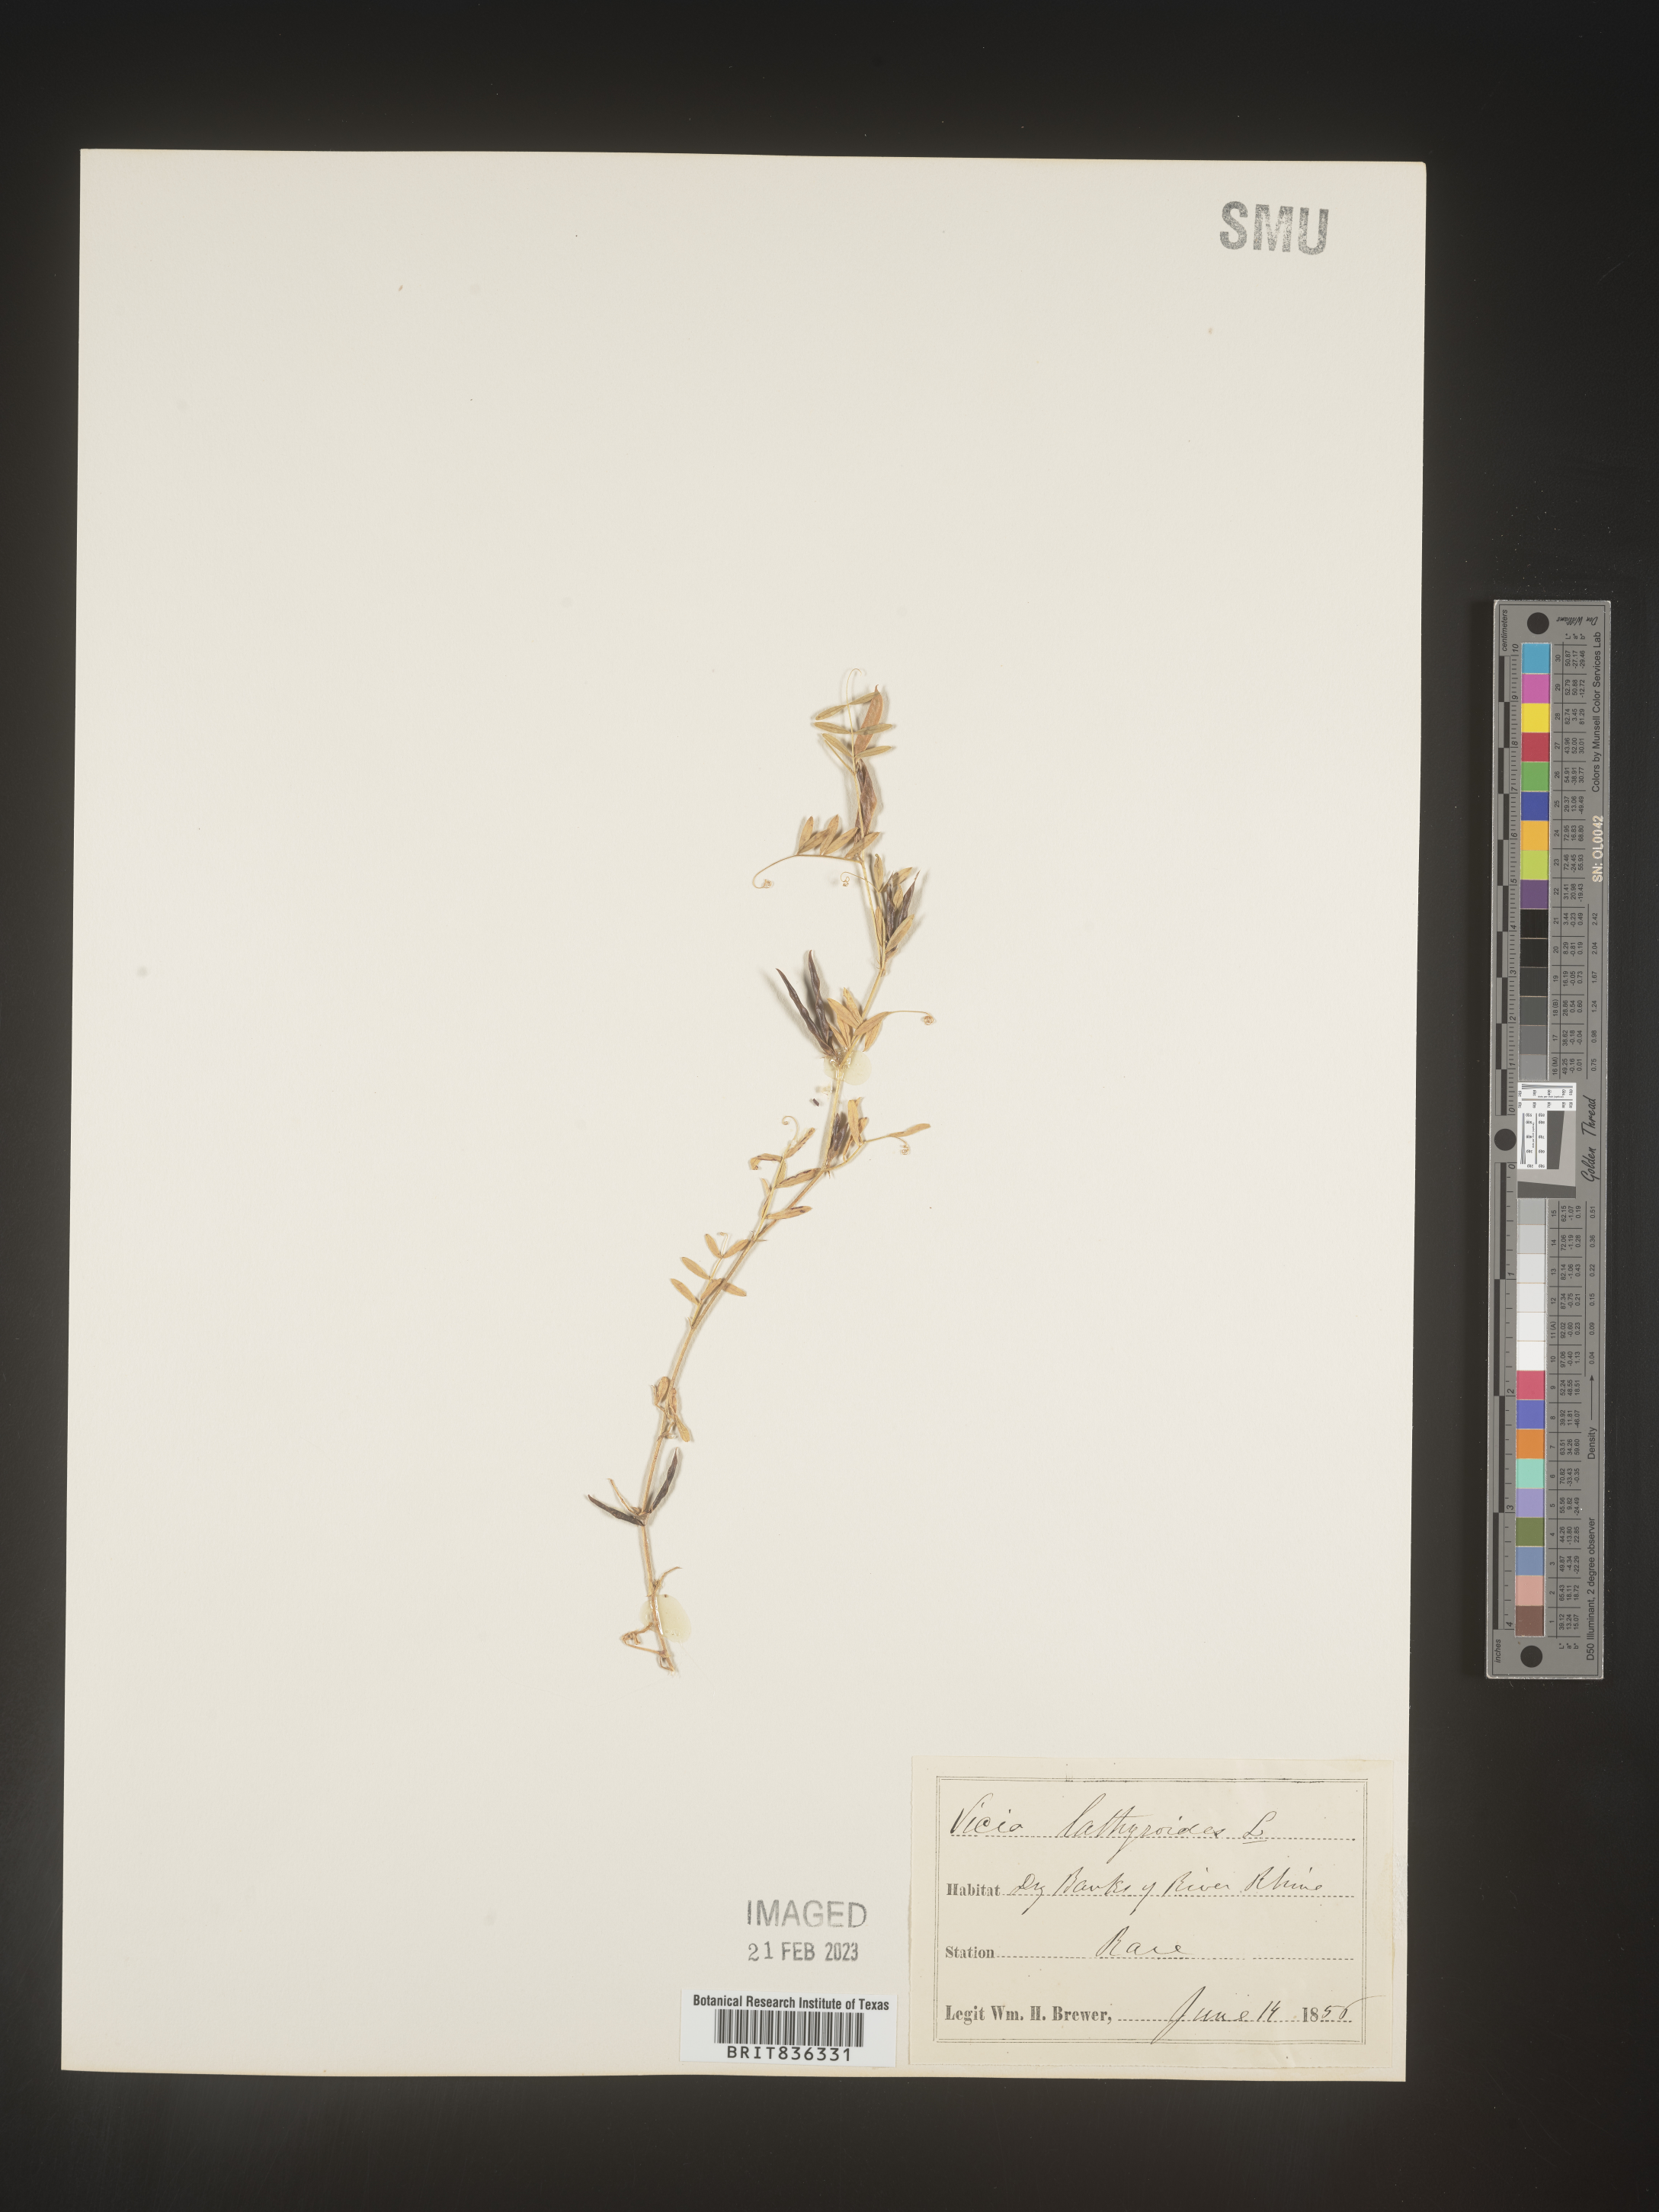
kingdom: Plantae
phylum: Tracheophyta
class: Magnoliopsida
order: Fabales
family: Fabaceae
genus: Vicia
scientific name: Vicia
